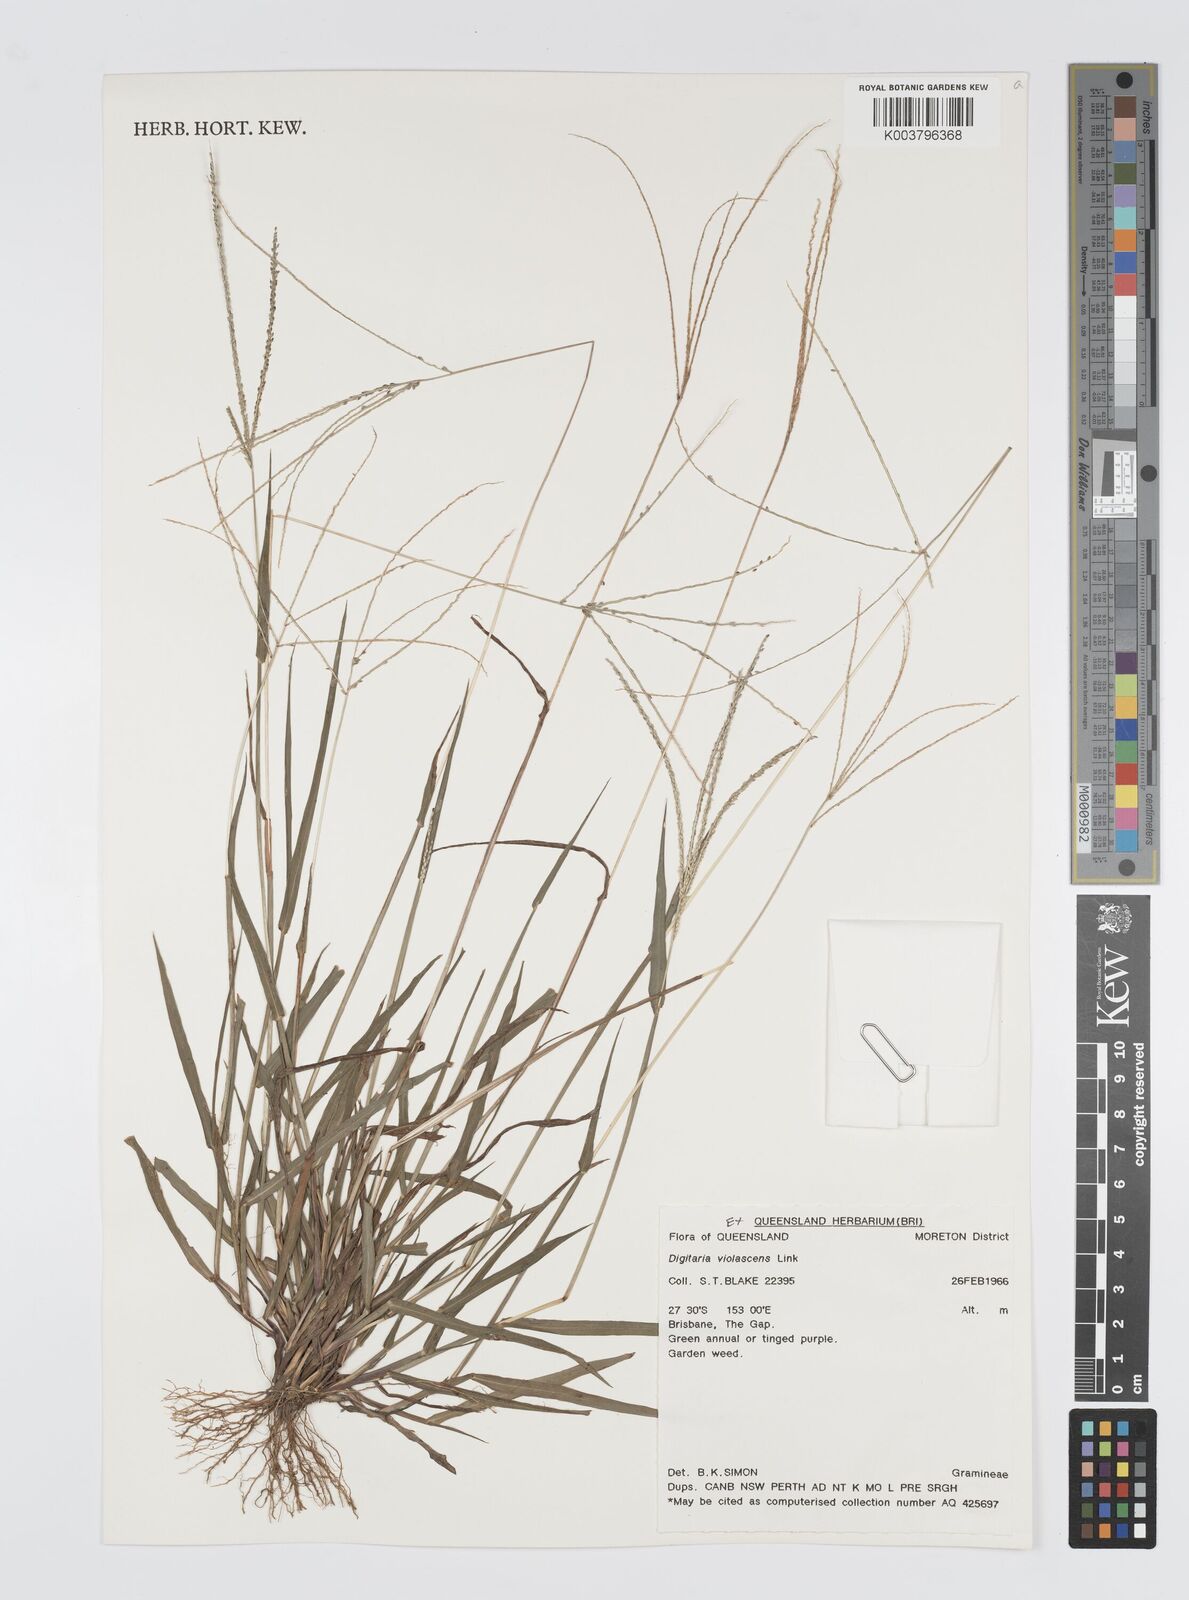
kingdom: Plantae
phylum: Tracheophyta
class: Liliopsida
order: Poales
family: Poaceae
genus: Digitaria
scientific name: Digitaria violascens
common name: Violet crabgrass
